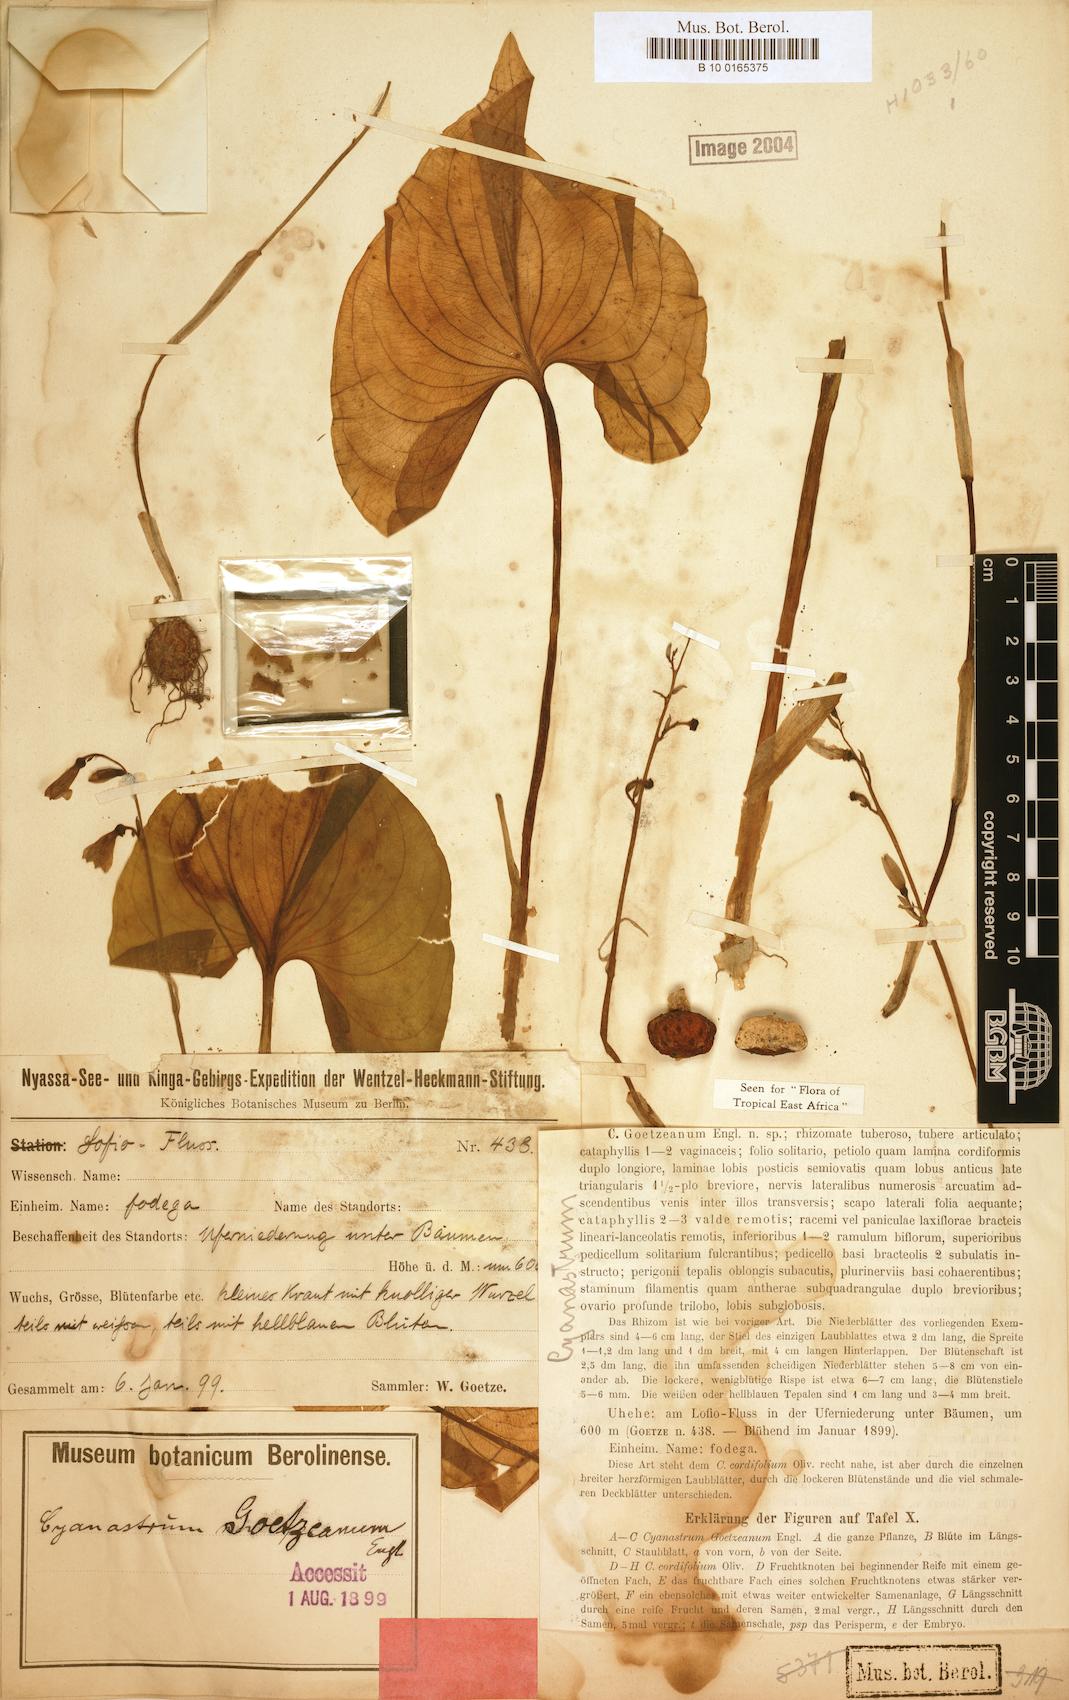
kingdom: Plantae
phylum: Tracheophyta
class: Liliopsida
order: Asparagales
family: Tecophilaeaceae
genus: Cyanastrum
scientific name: Cyanastrum goetzeanum
